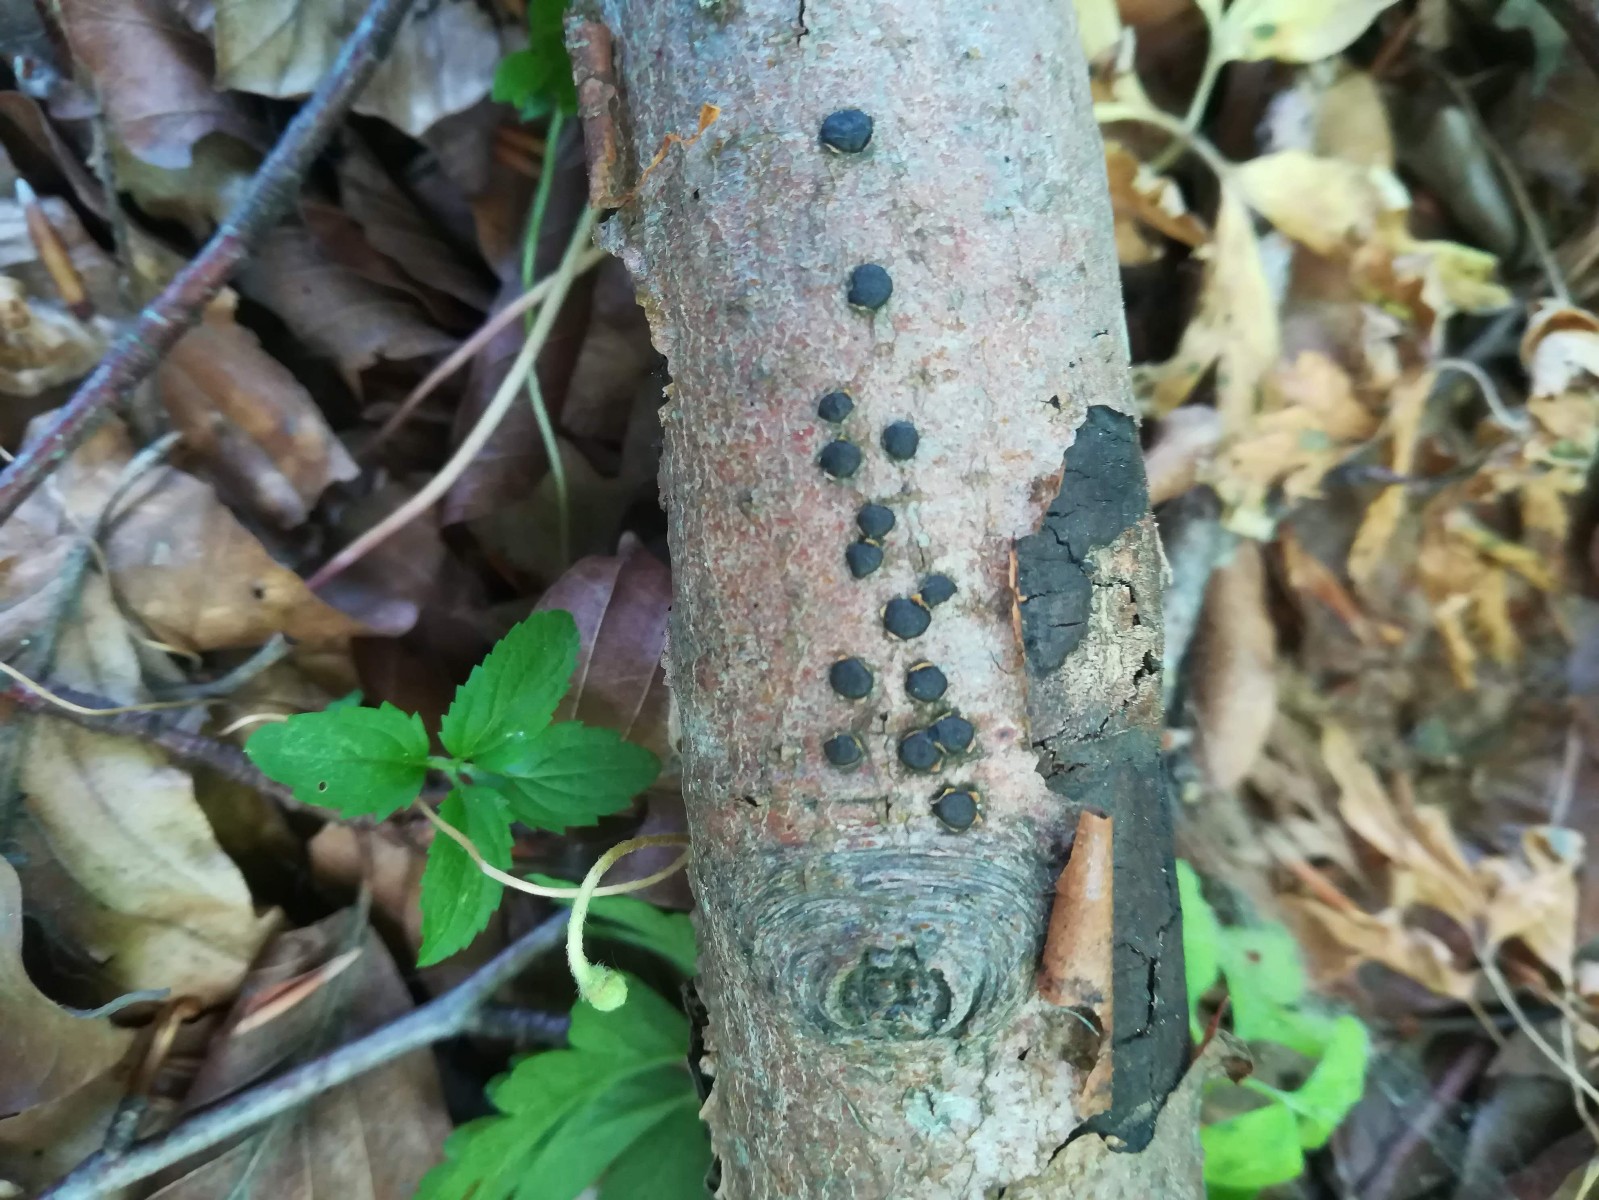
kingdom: Fungi
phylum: Ascomycota
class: Sordariomycetes
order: Xylariales
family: Diatrypaceae
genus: Diatrype
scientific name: Diatrype disciformis
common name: kant-kulskorpe
